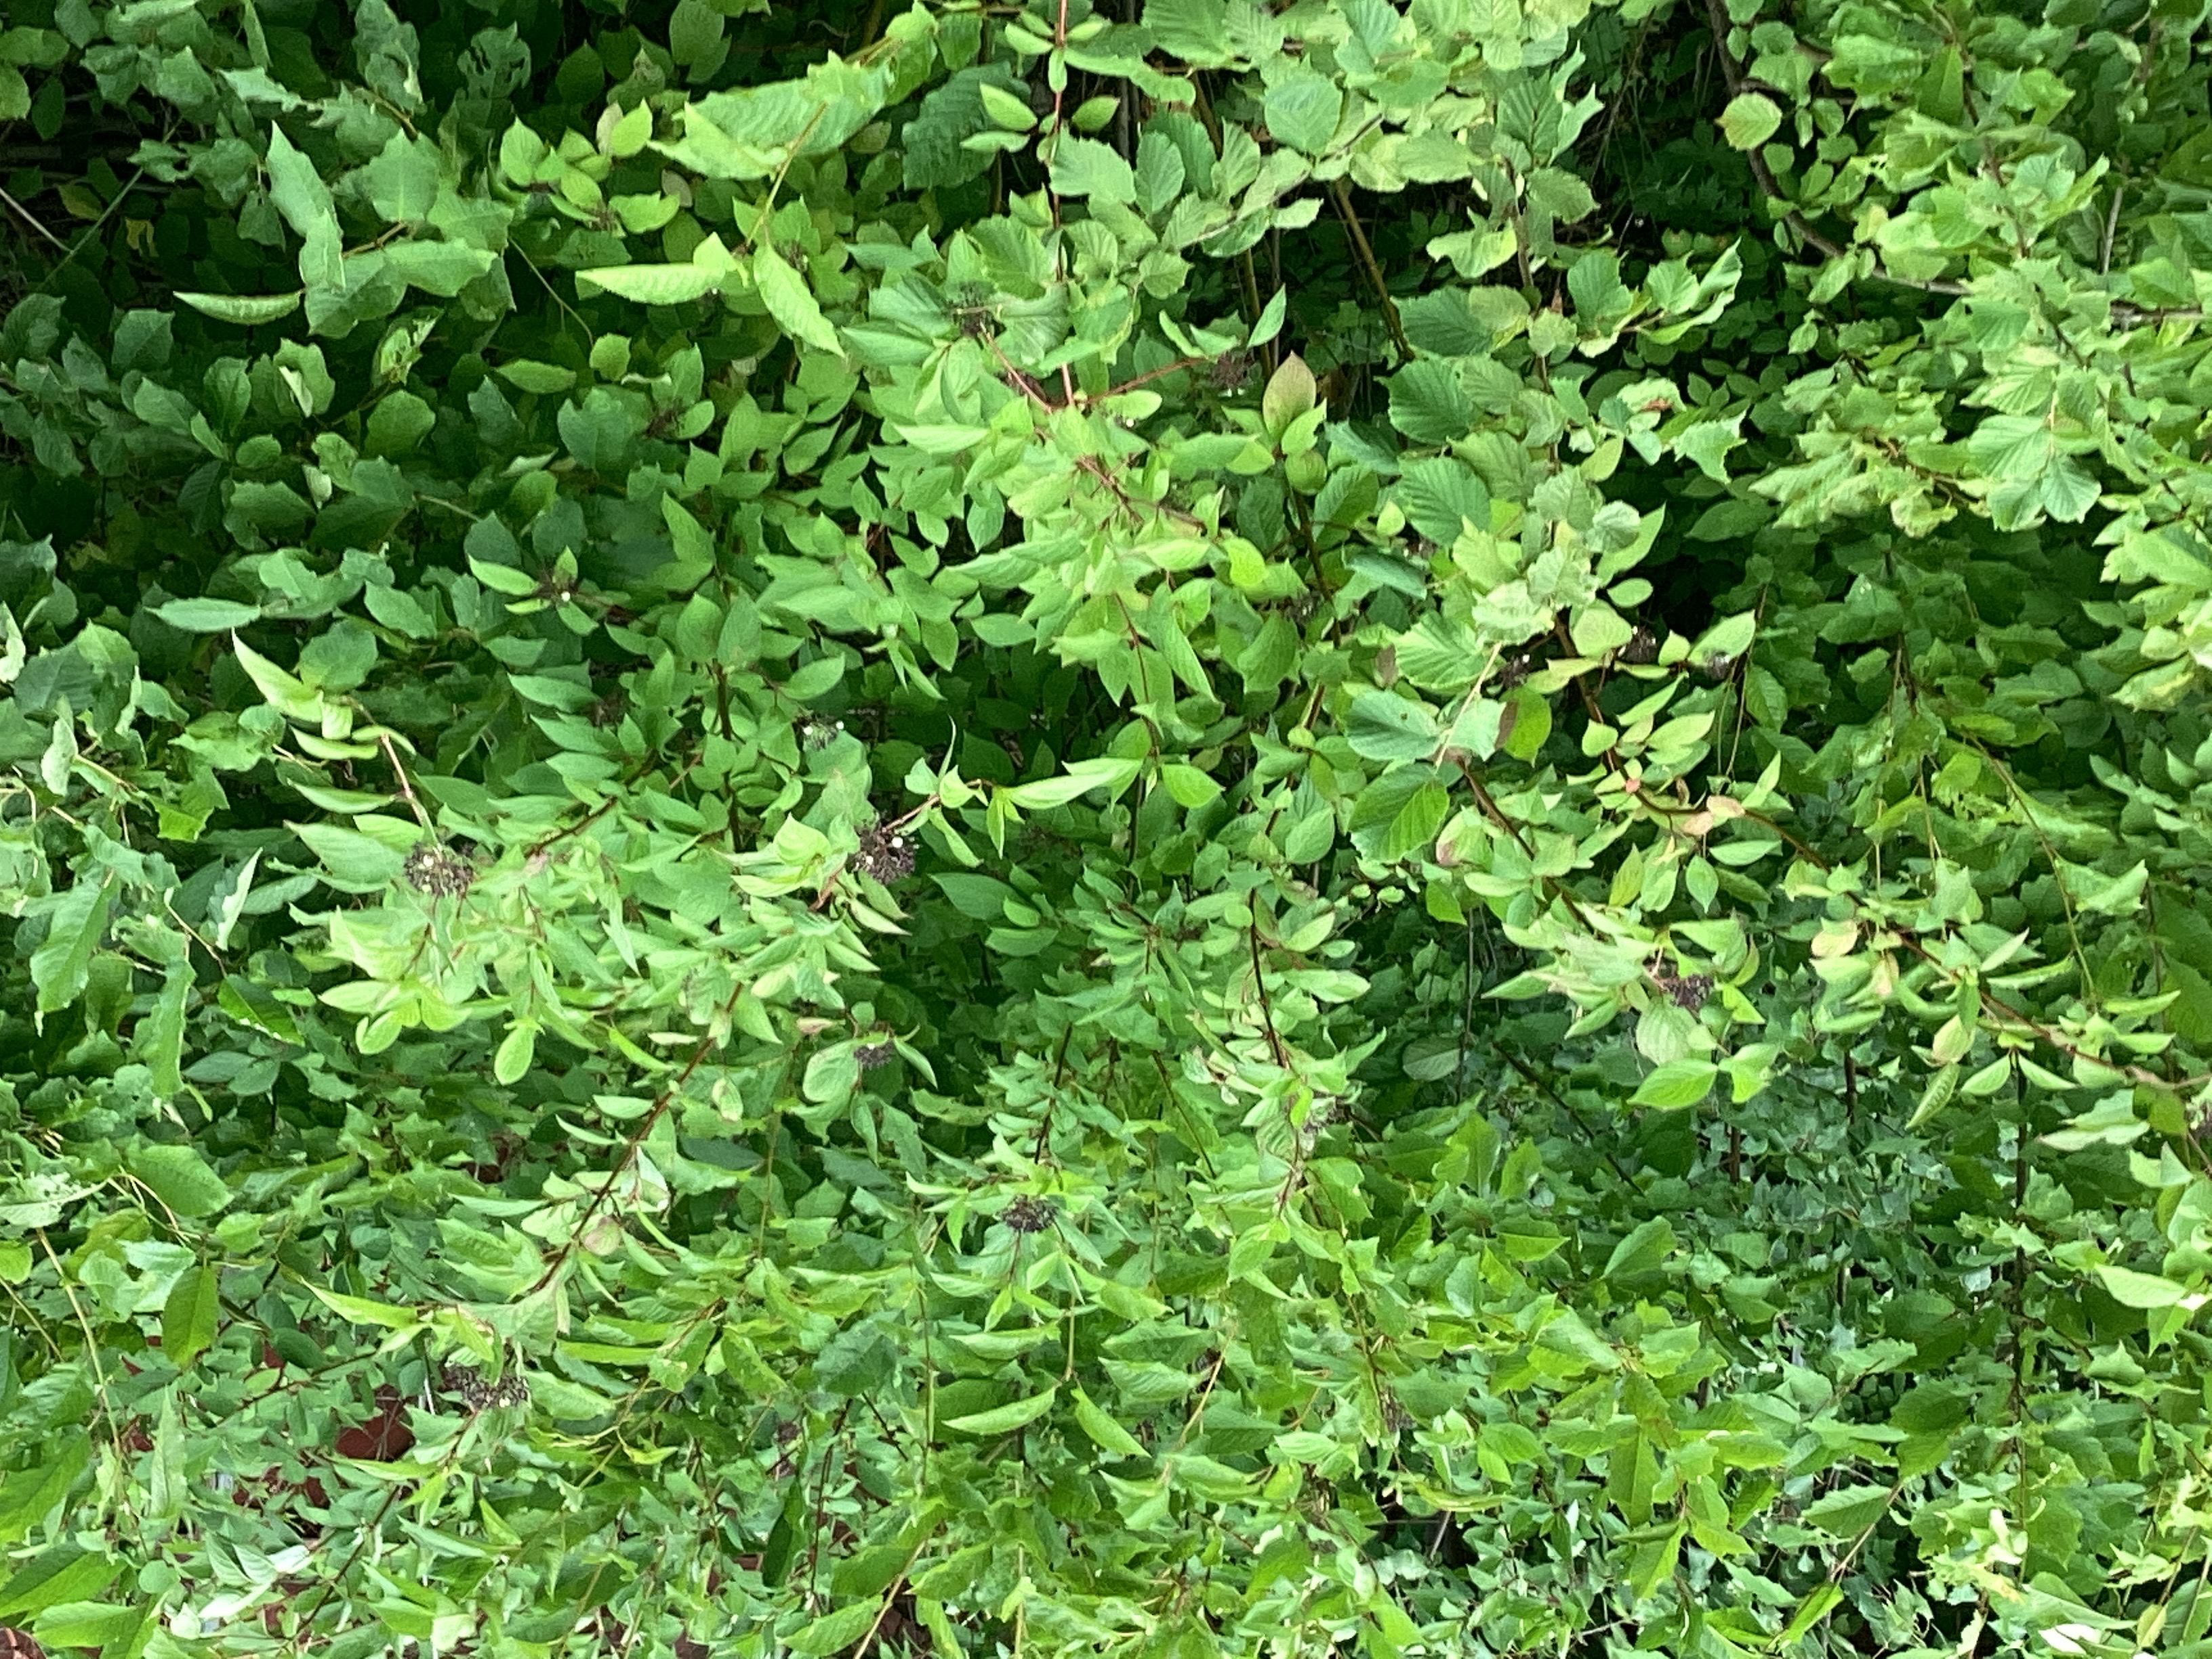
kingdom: Plantae
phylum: Tracheophyta
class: Magnoliopsida
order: Cornales
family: Cornaceae
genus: Cornus
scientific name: Cornus alba
